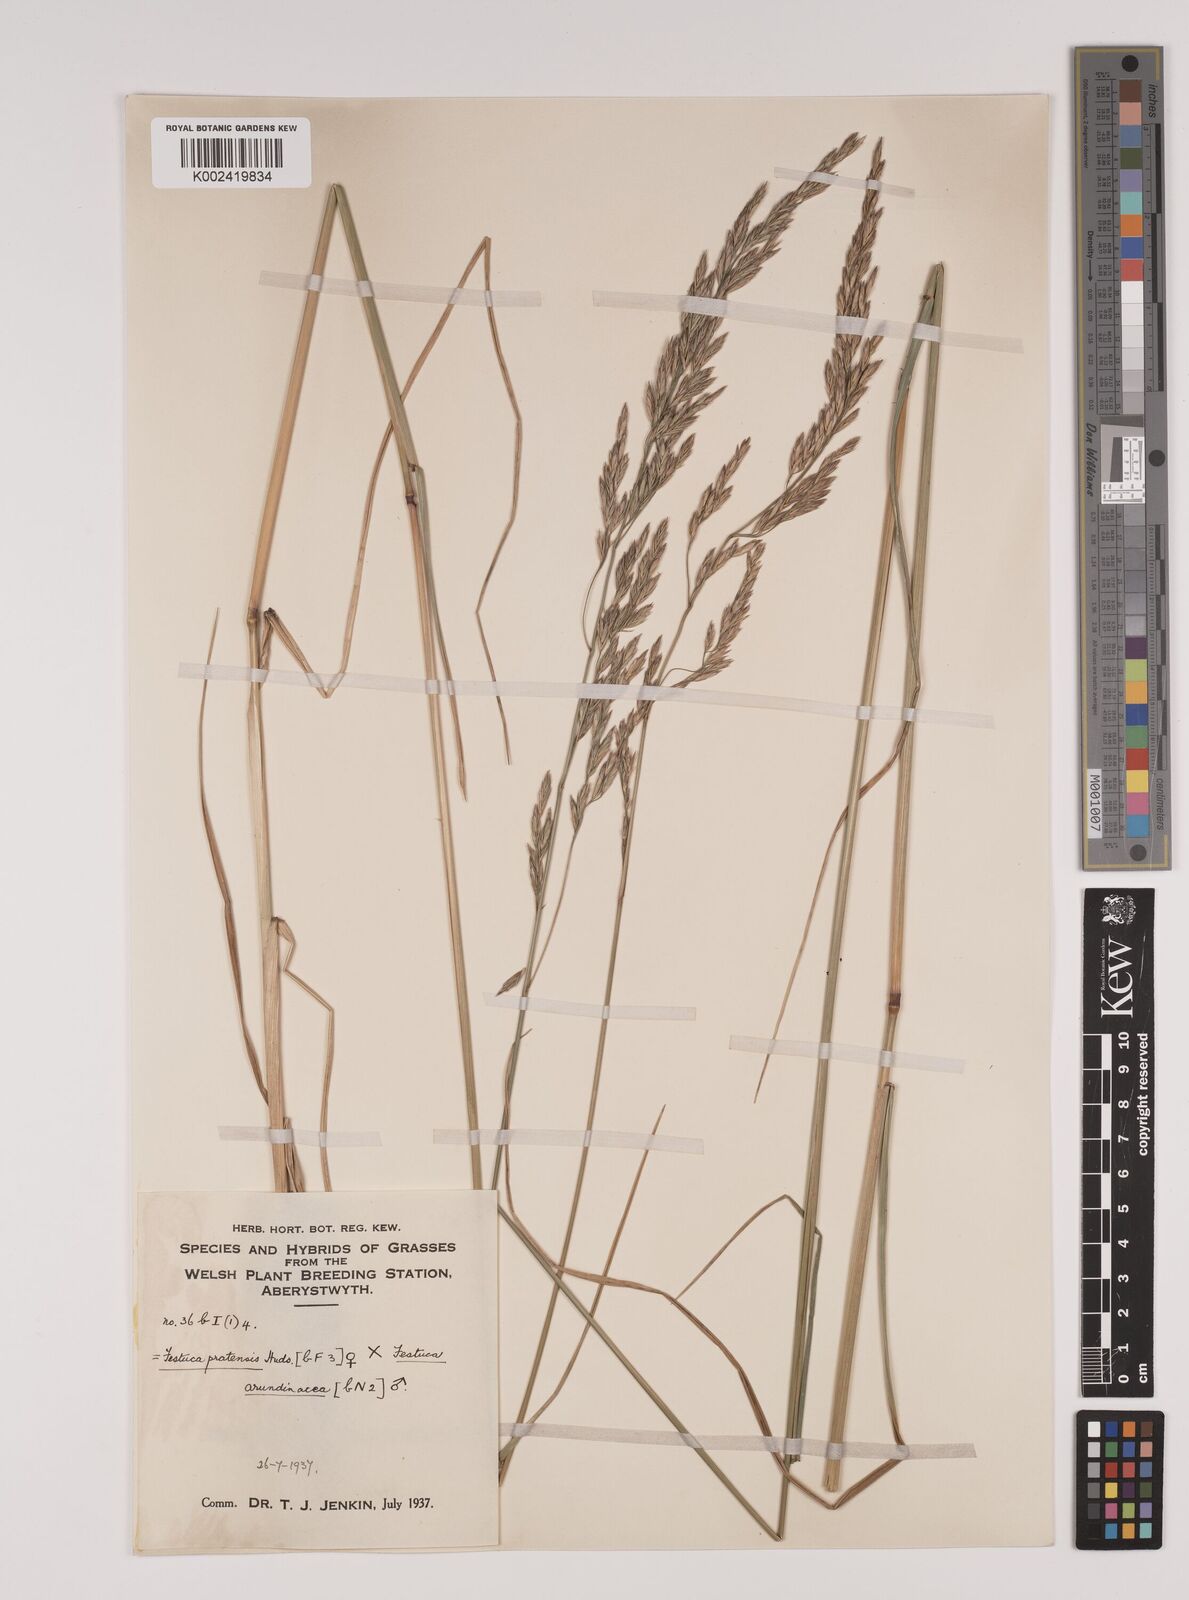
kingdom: Plantae
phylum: Tracheophyta
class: Liliopsida
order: Poales
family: Poaceae
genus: Festuca
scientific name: Festuca rubra
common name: Red fescue
